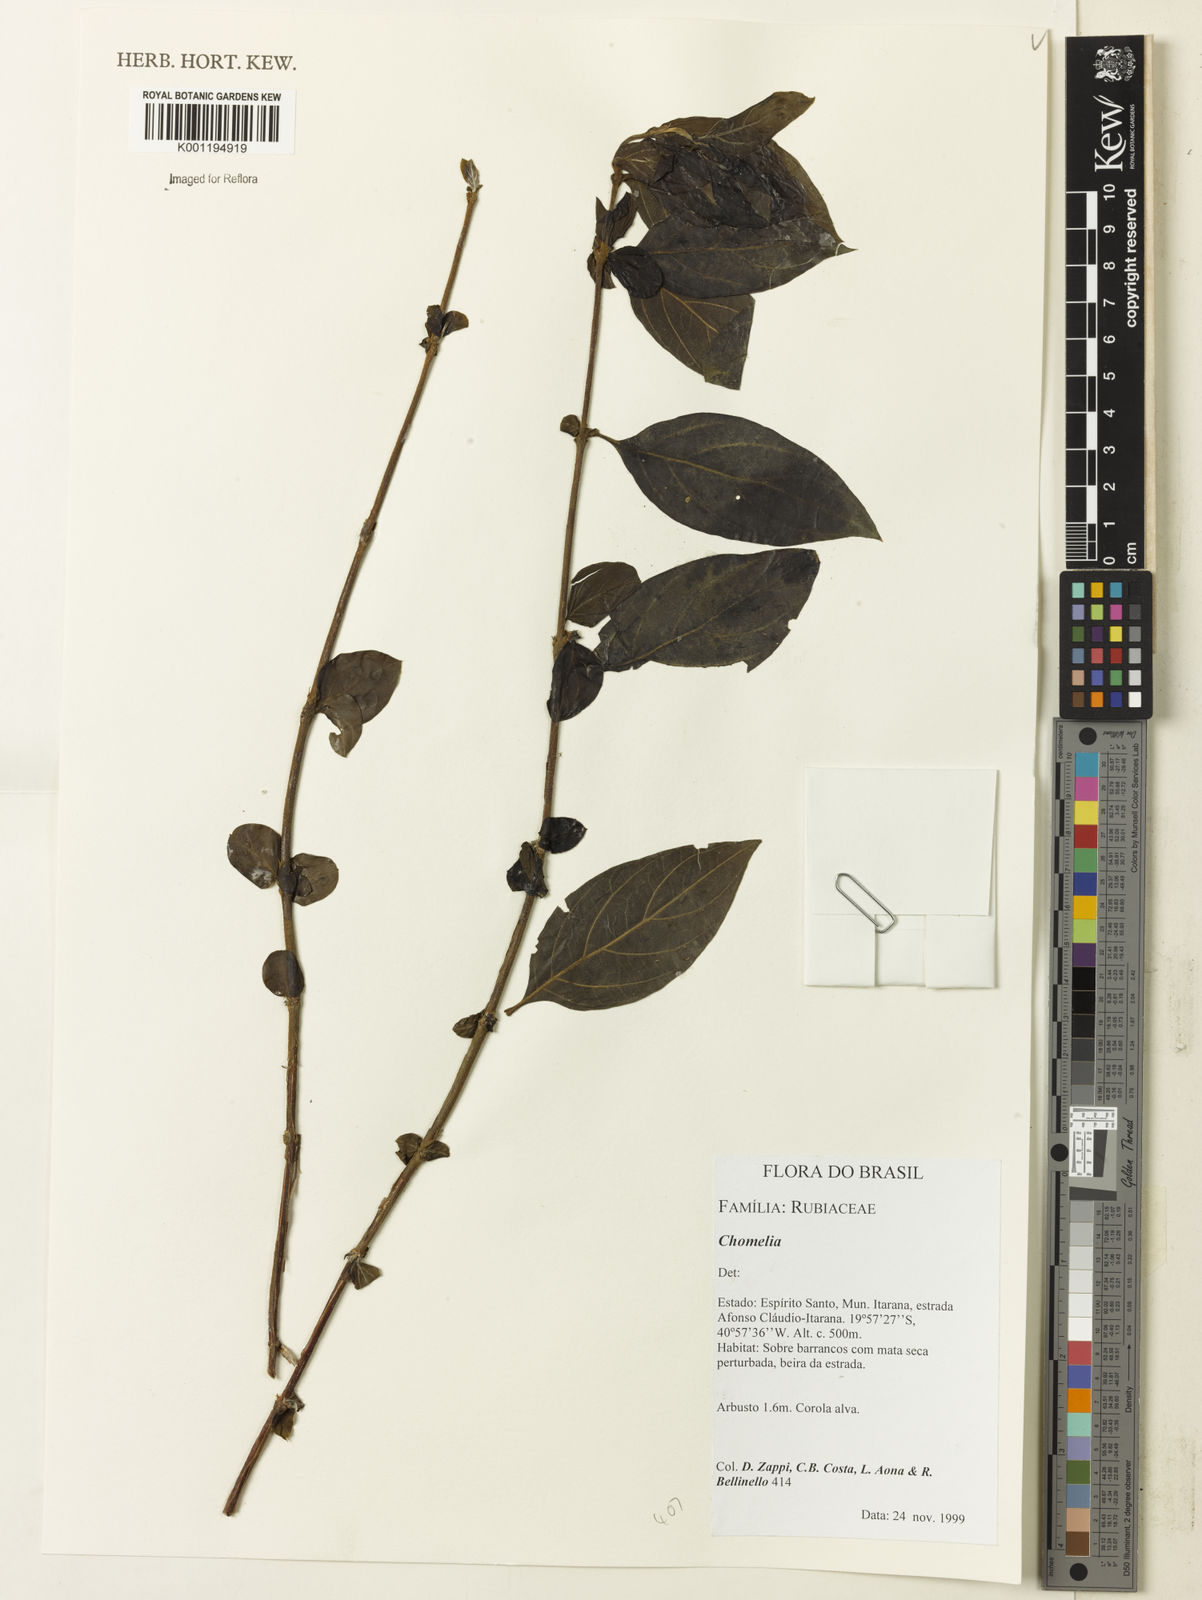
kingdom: Plantae
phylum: Tracheophyta
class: Magnoliopsida
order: Gentianales
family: Rubiaceae
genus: Chomelia
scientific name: Chomelia
